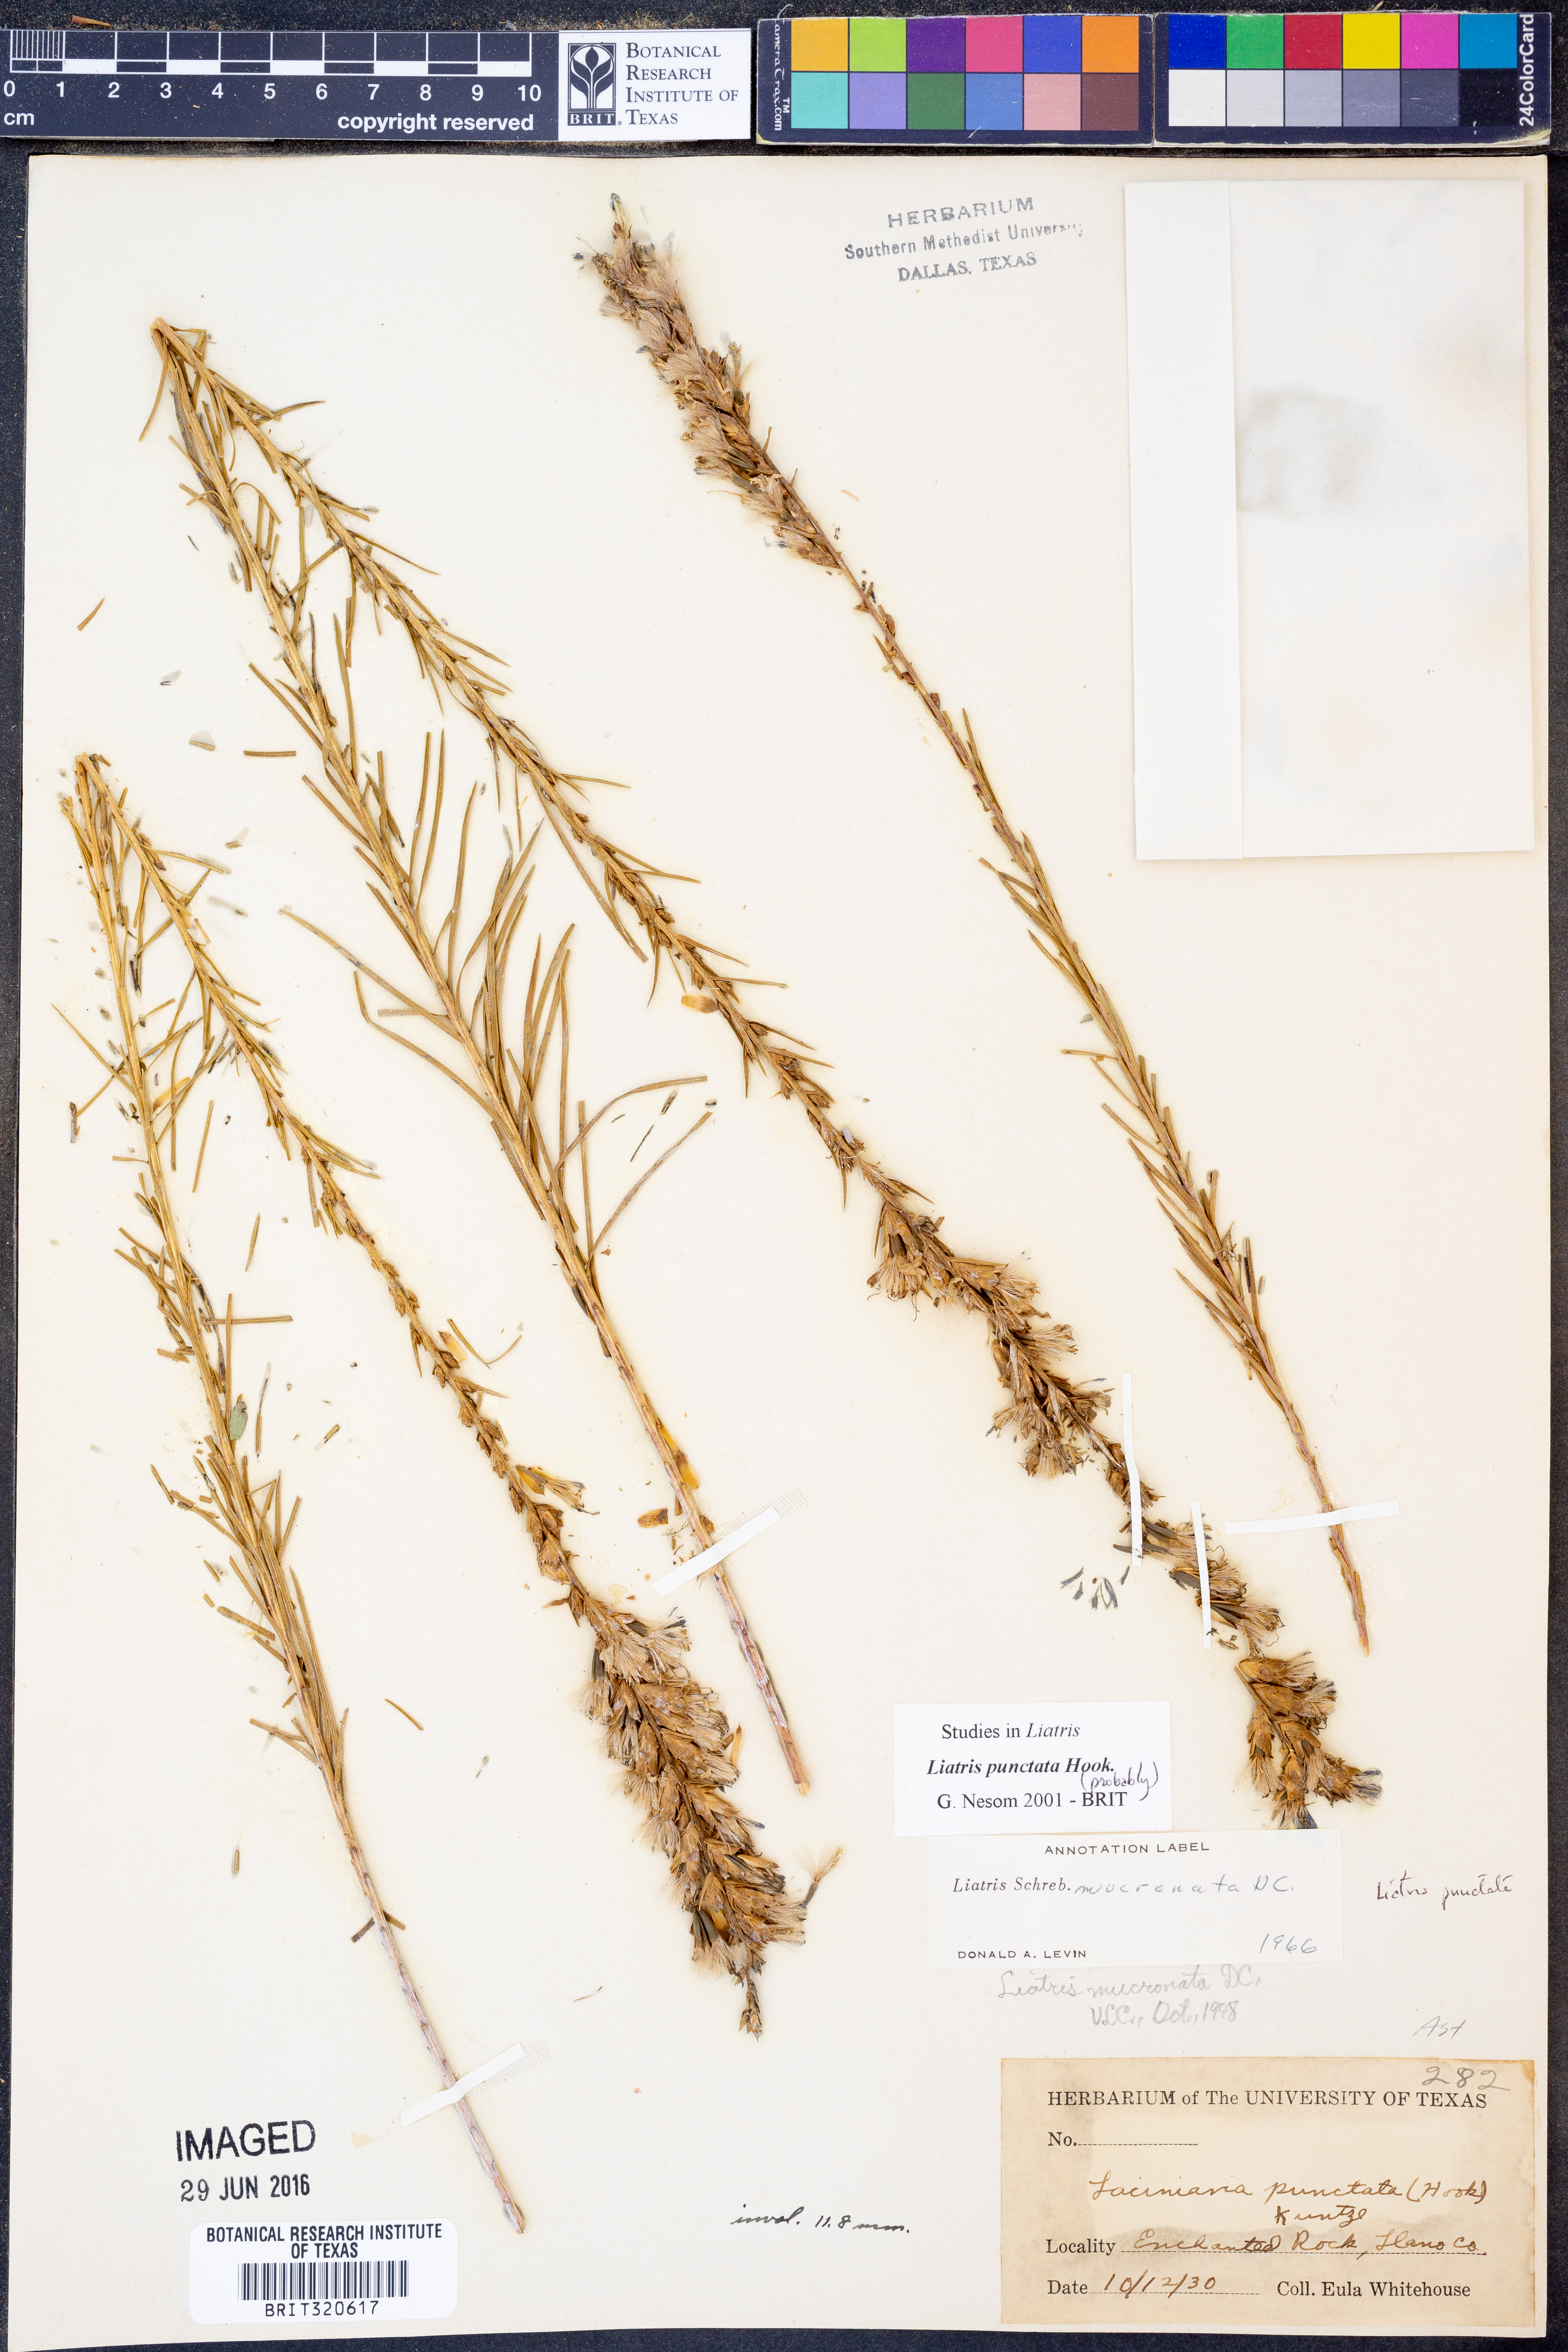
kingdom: Plantae
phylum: Tracheophyta
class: Magnoliopsida
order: Asterales
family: Asteraceae
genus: Liatris
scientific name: Liatris punctata
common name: Dotted gayfeather
